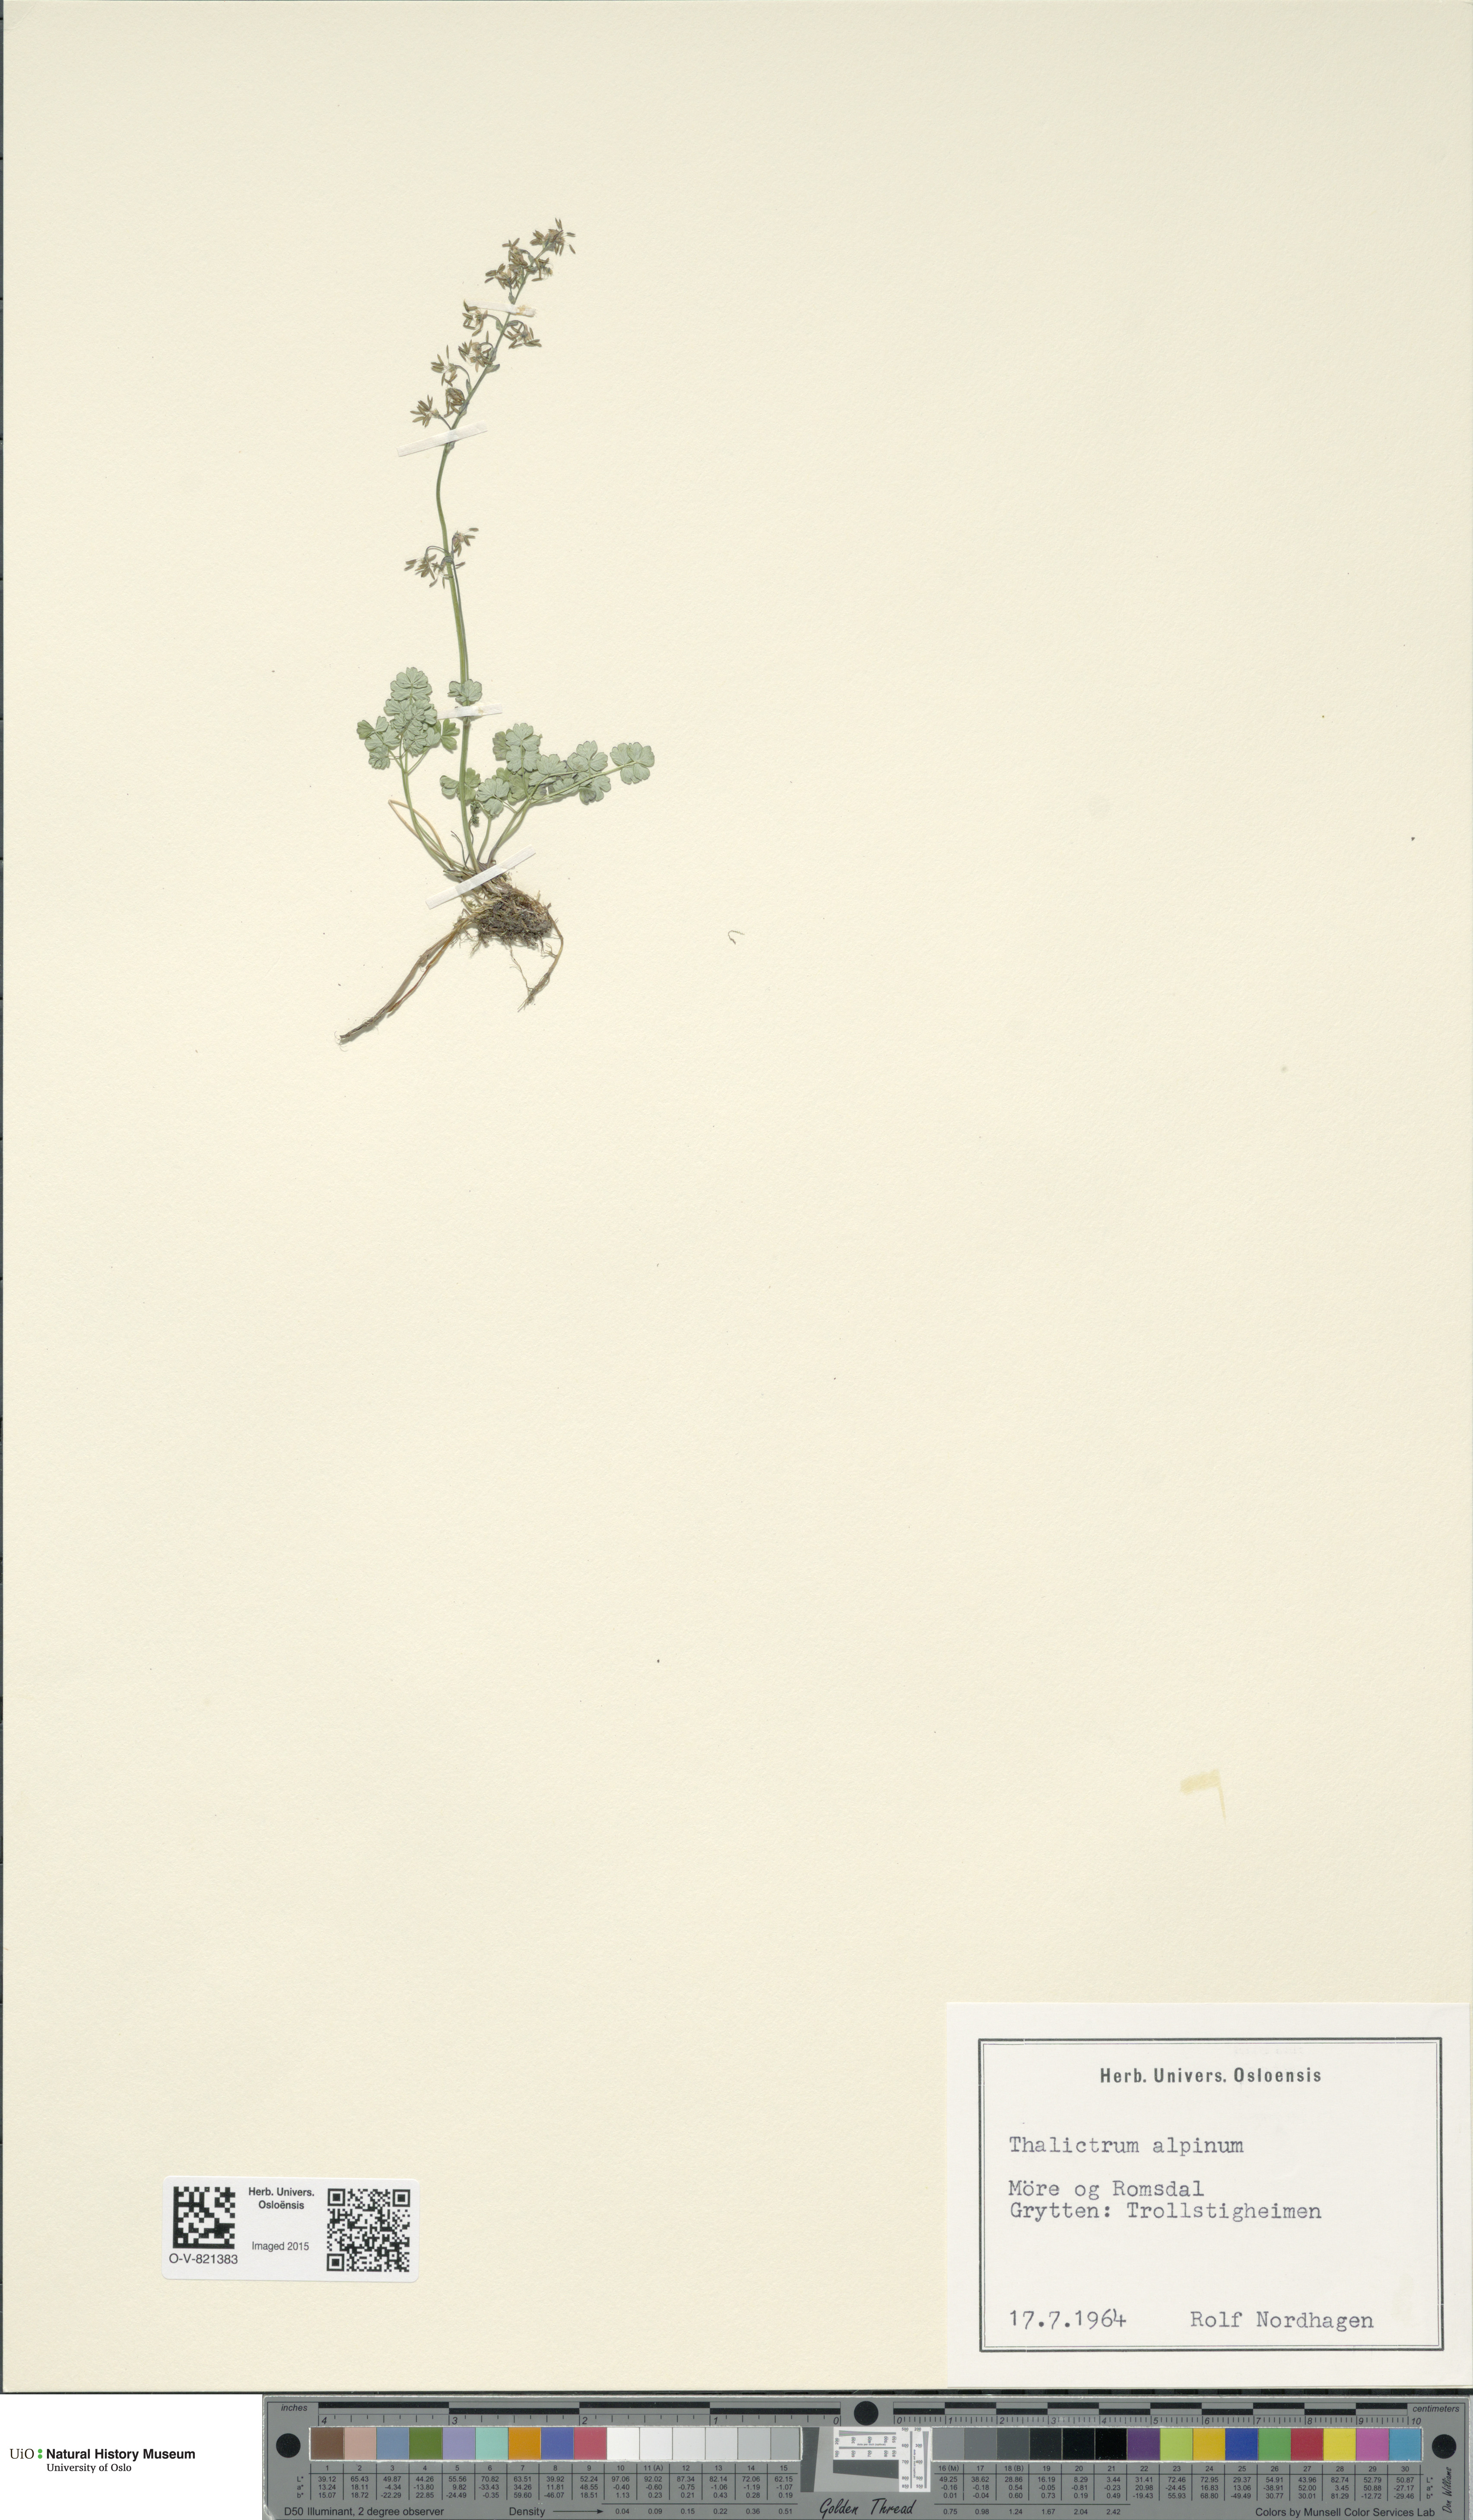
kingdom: Plantae
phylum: Tracheophyta
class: Magnoliopsida
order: Ranunculales
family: Ranunculaceae
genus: Thalictrum
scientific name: Thalictrum alpinum
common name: Alpine meadow-rue
